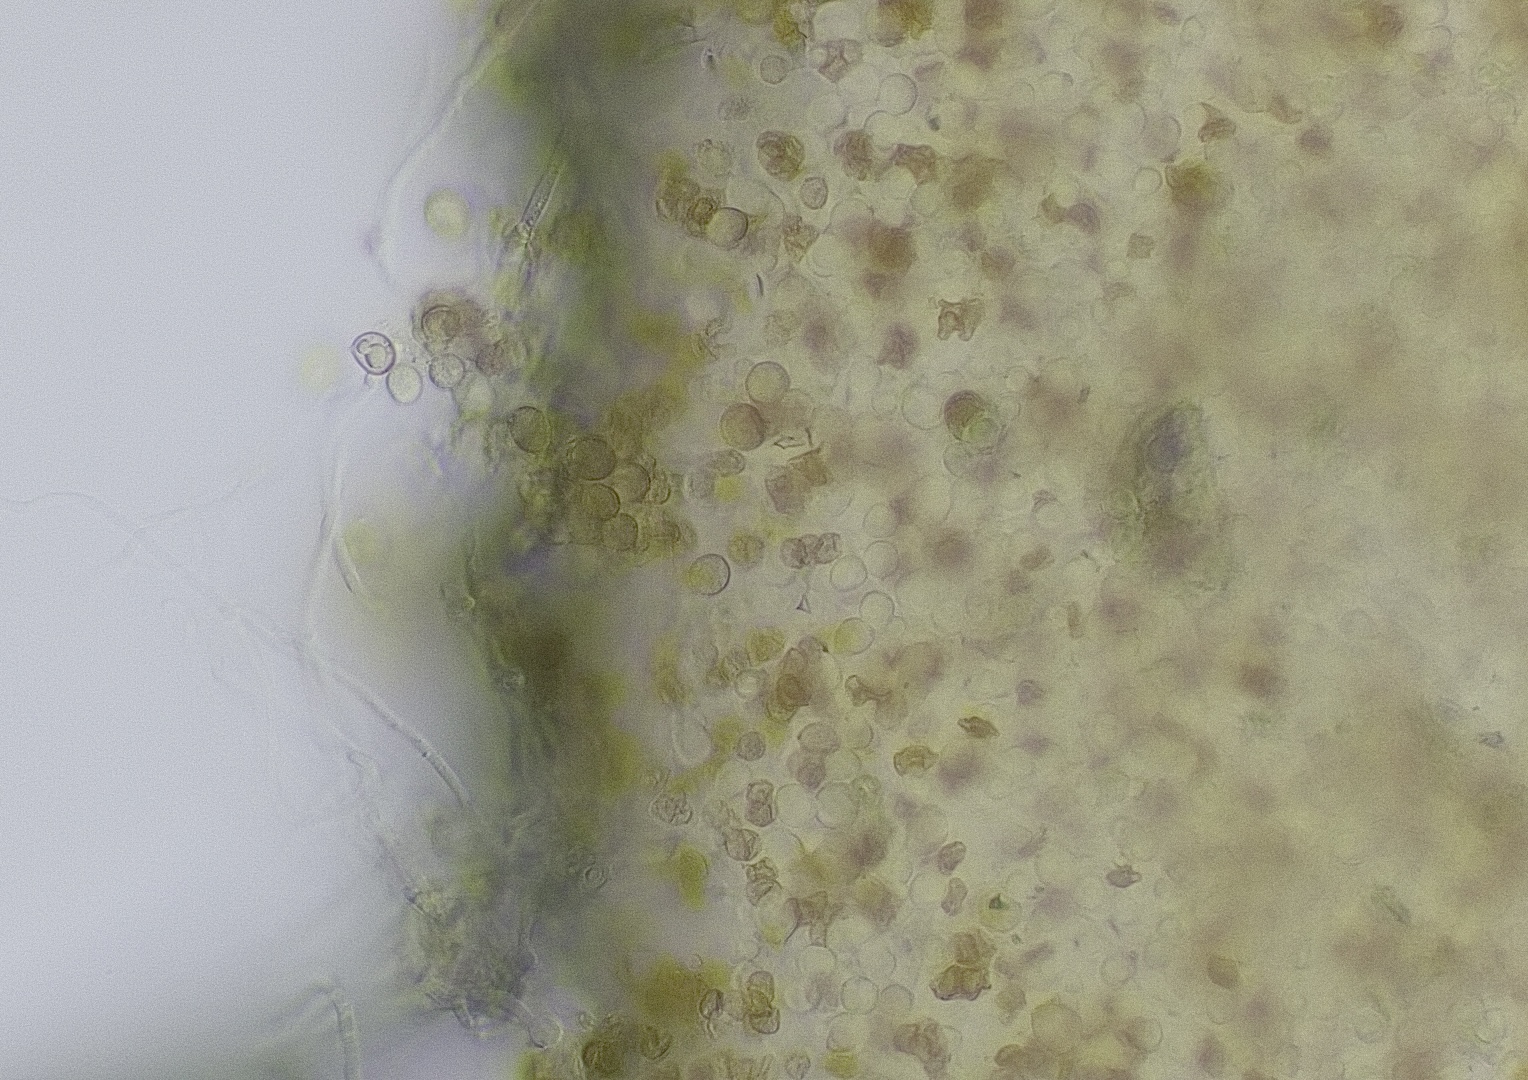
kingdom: Fungi
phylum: Basidiomycota
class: Agaricomycetes
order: Agaricales
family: Crepidotaceae
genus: Crepidotus
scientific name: Crepidotus cesatii
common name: almindelig muslingesvamp
